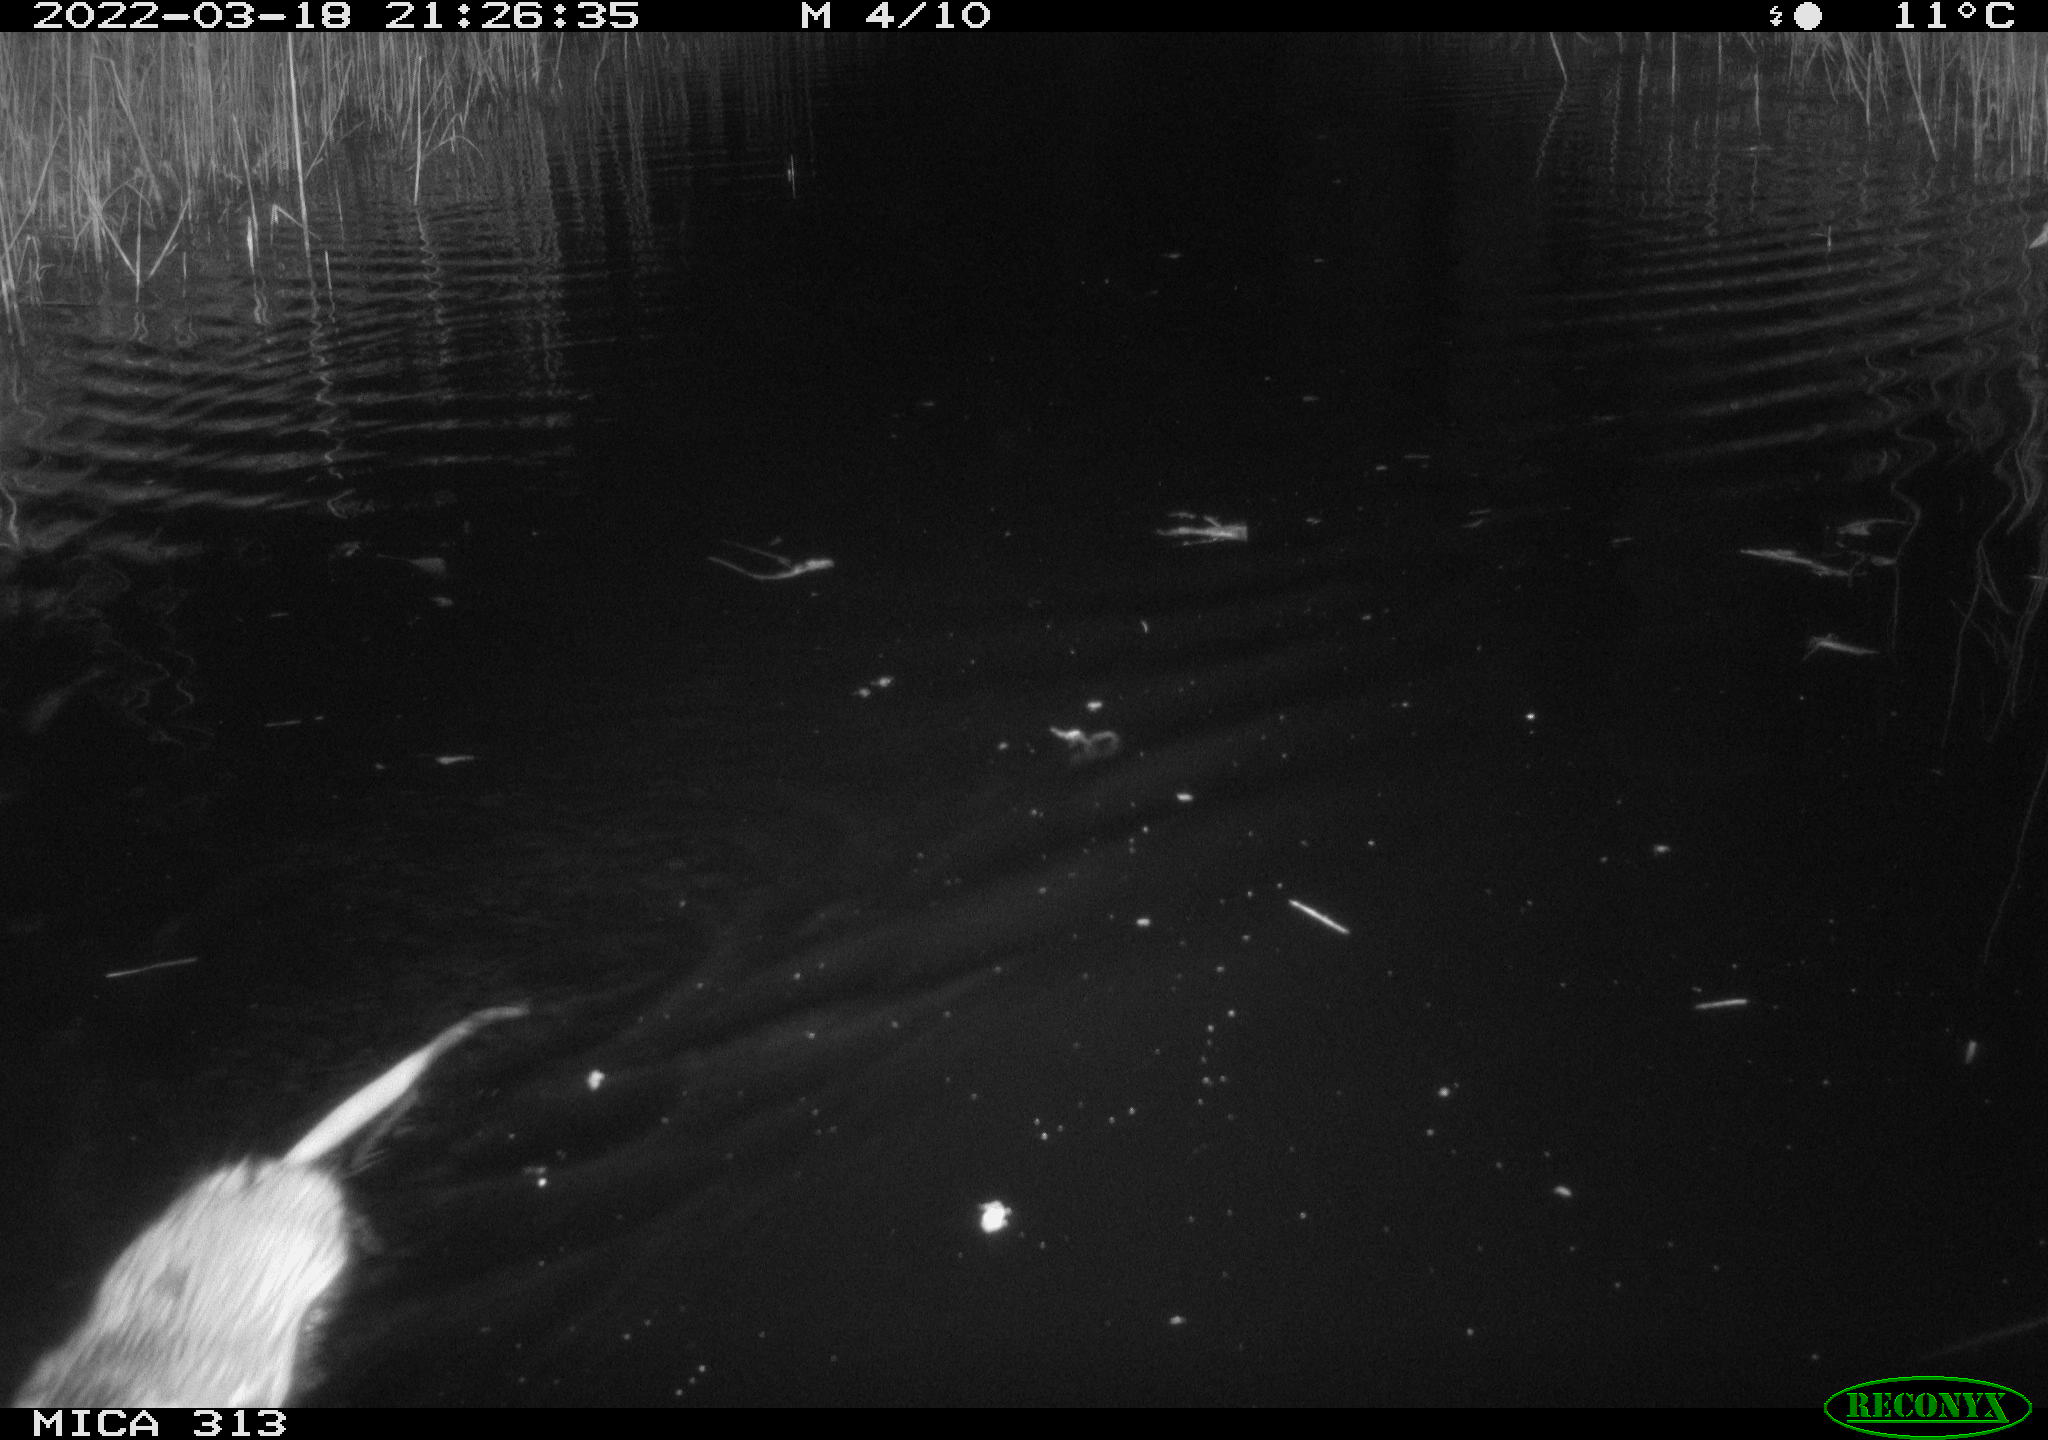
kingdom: Animalia
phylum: Chordata
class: Mammalia
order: Rodentia
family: Cricetidae
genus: Ondatra
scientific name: Ondatra zibethicus
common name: Muskrat
